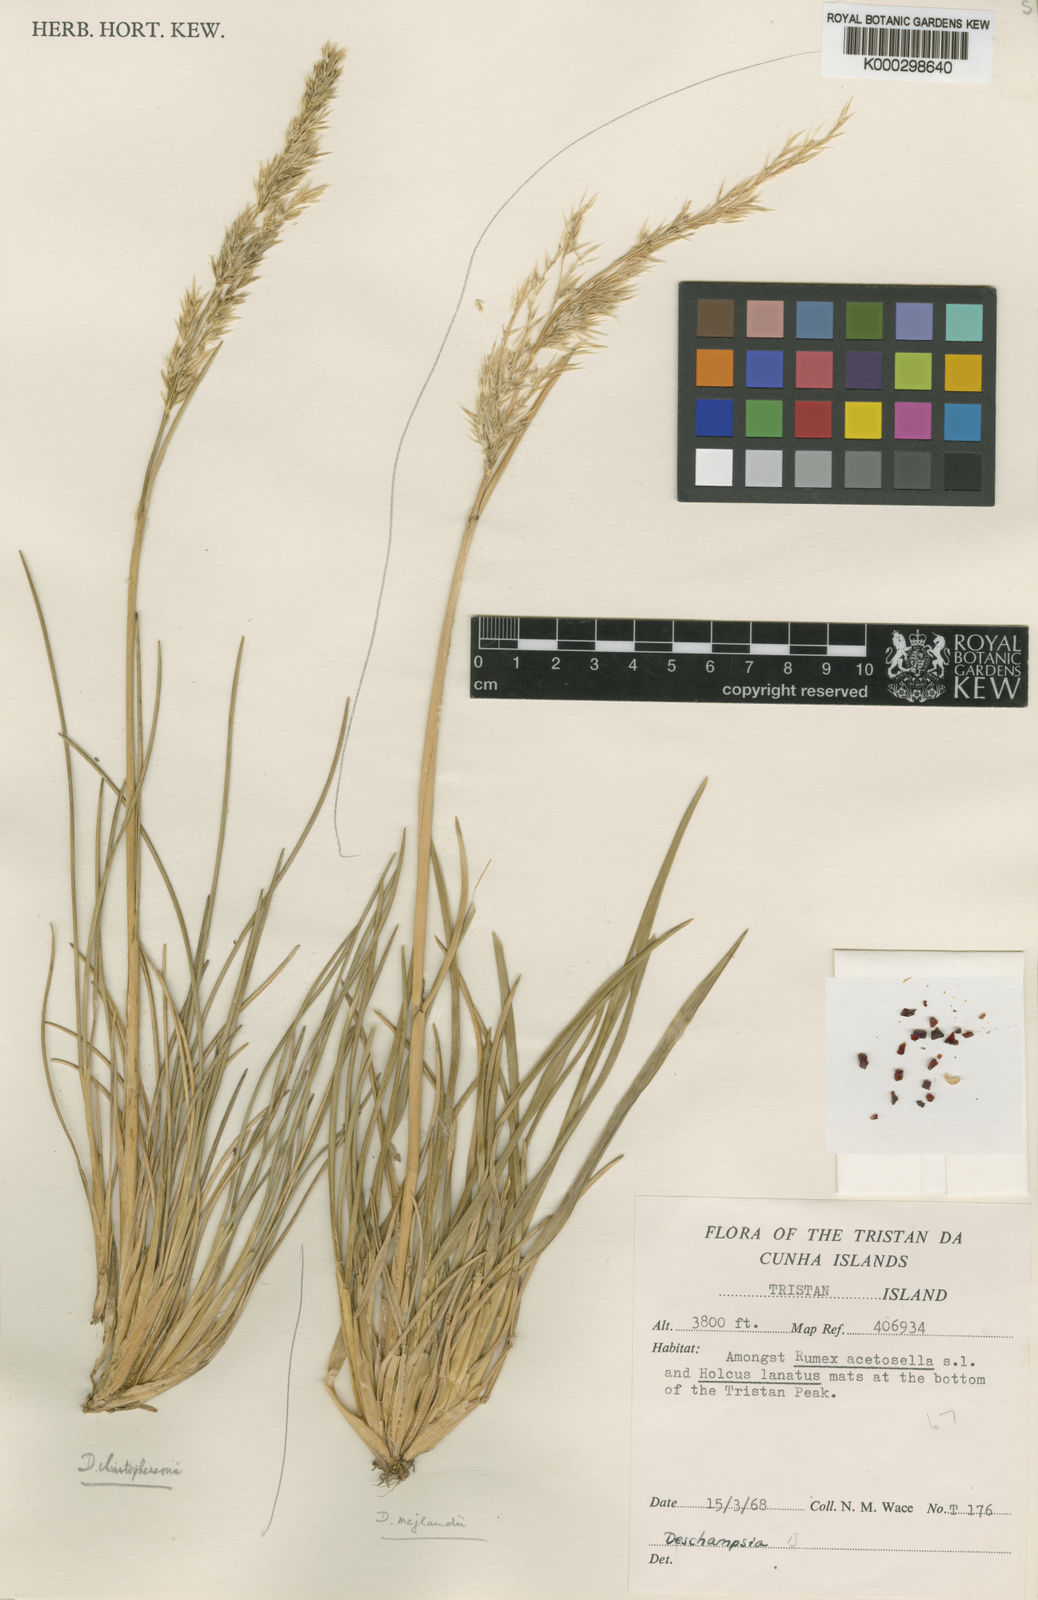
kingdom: Plantae
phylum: Tracheophyta
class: Liliopsida
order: Poales
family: Poaceae
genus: Deschampsia
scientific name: Deschampsia mejlandii
